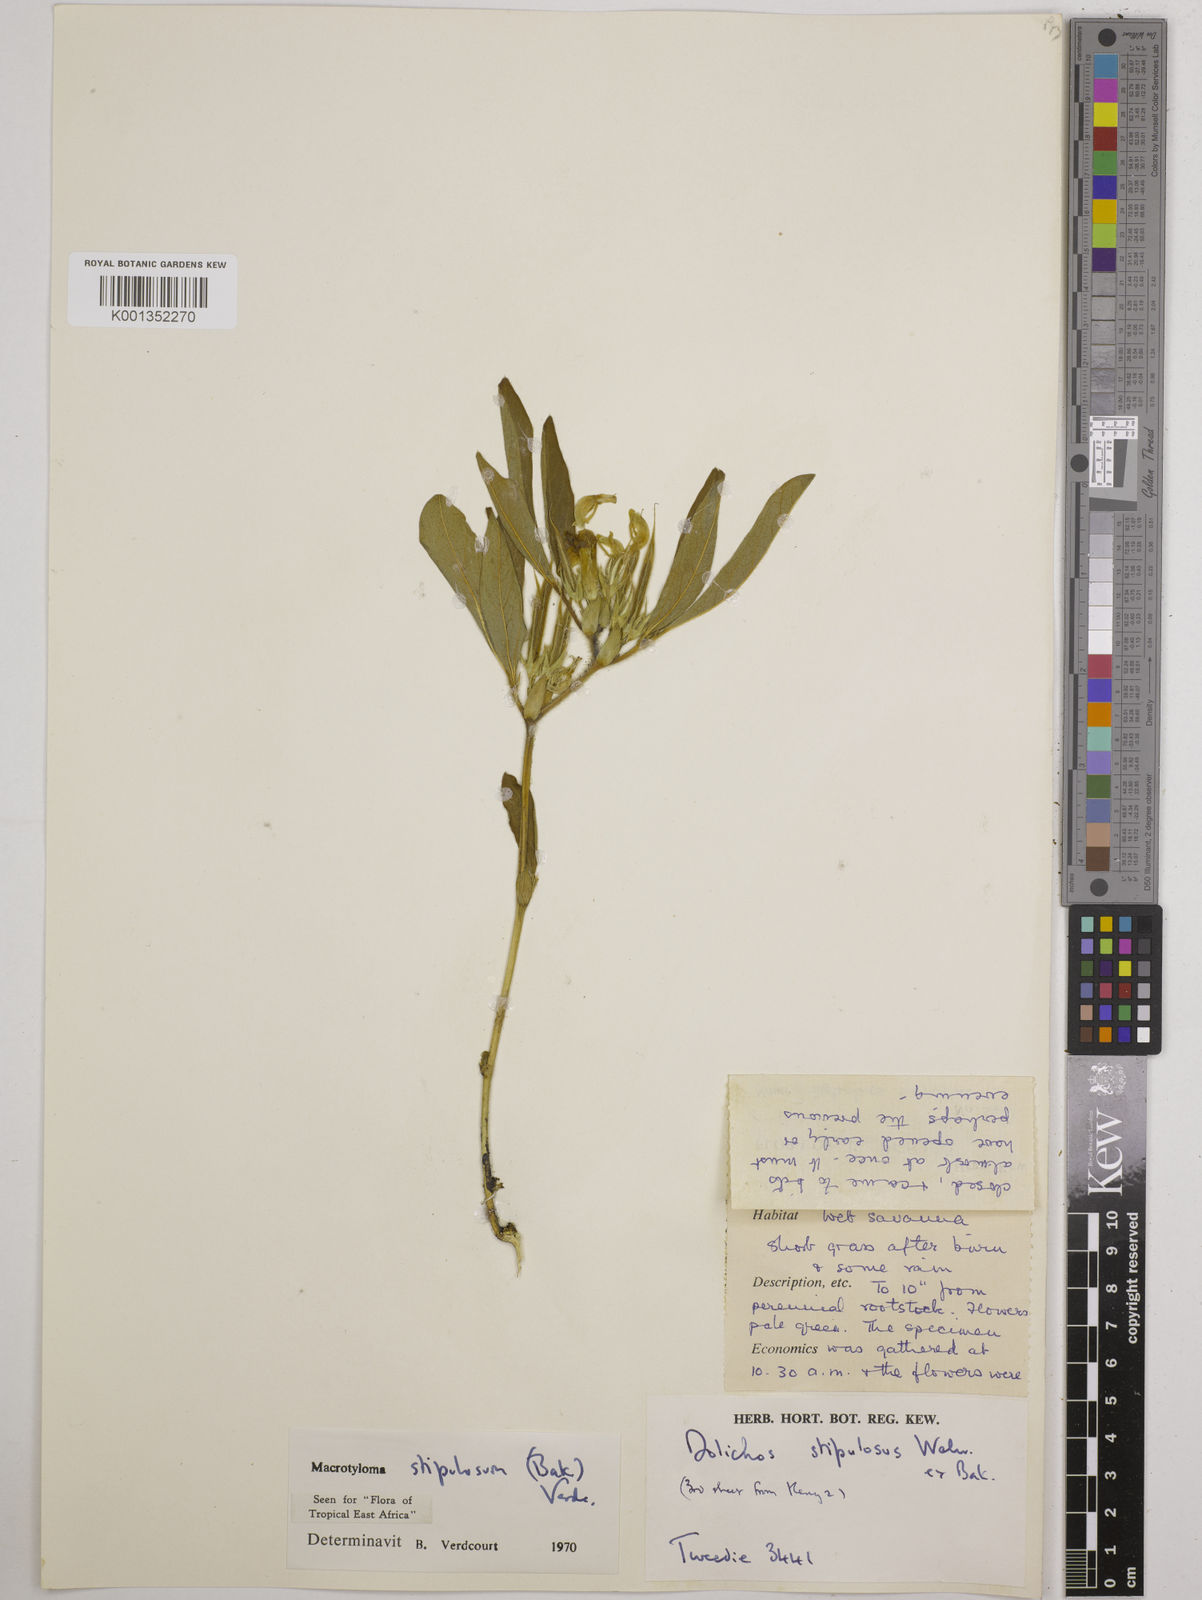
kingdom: Plantae
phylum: Tracheophyta
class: Magnoliopsida
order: Fabales
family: Fabaceae
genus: Macrotyloma
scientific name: Macrotyloma stipulosum
